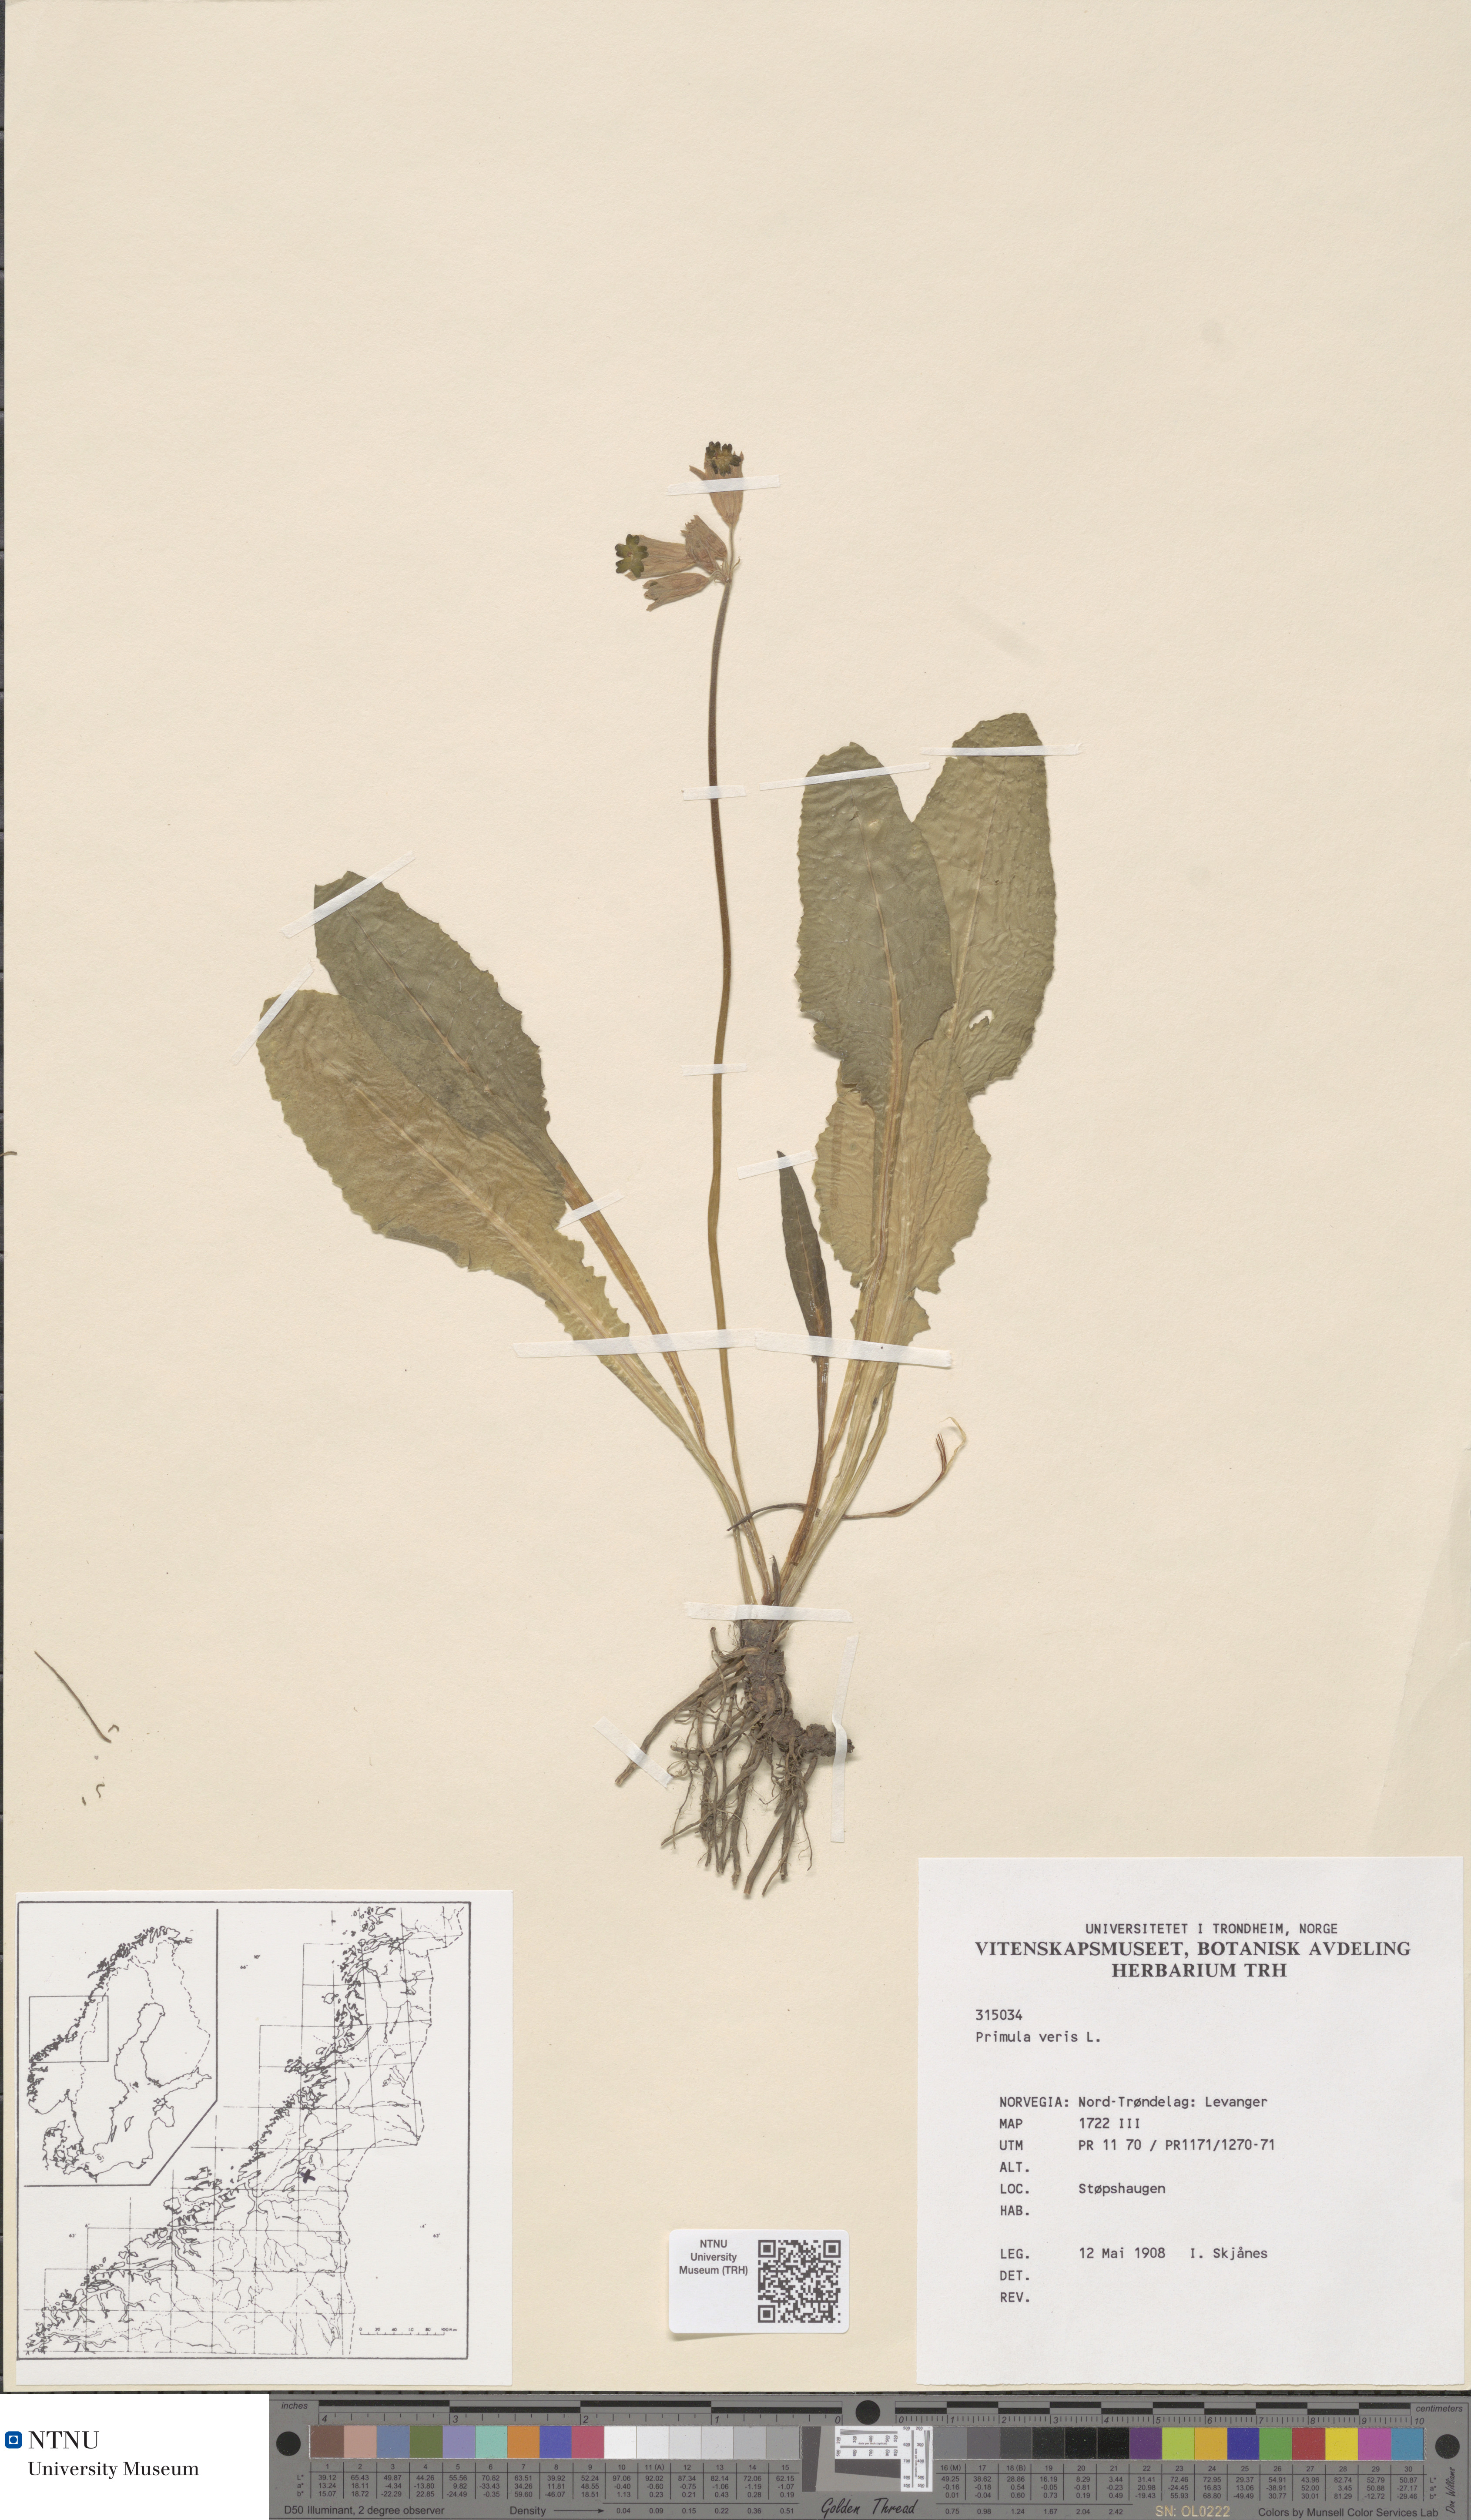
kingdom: Plantae
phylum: Tracheophyta
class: Magnoliopsida
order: Ericales
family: Primulaceae
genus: Primula
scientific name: Primula veris
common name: Cowslip
